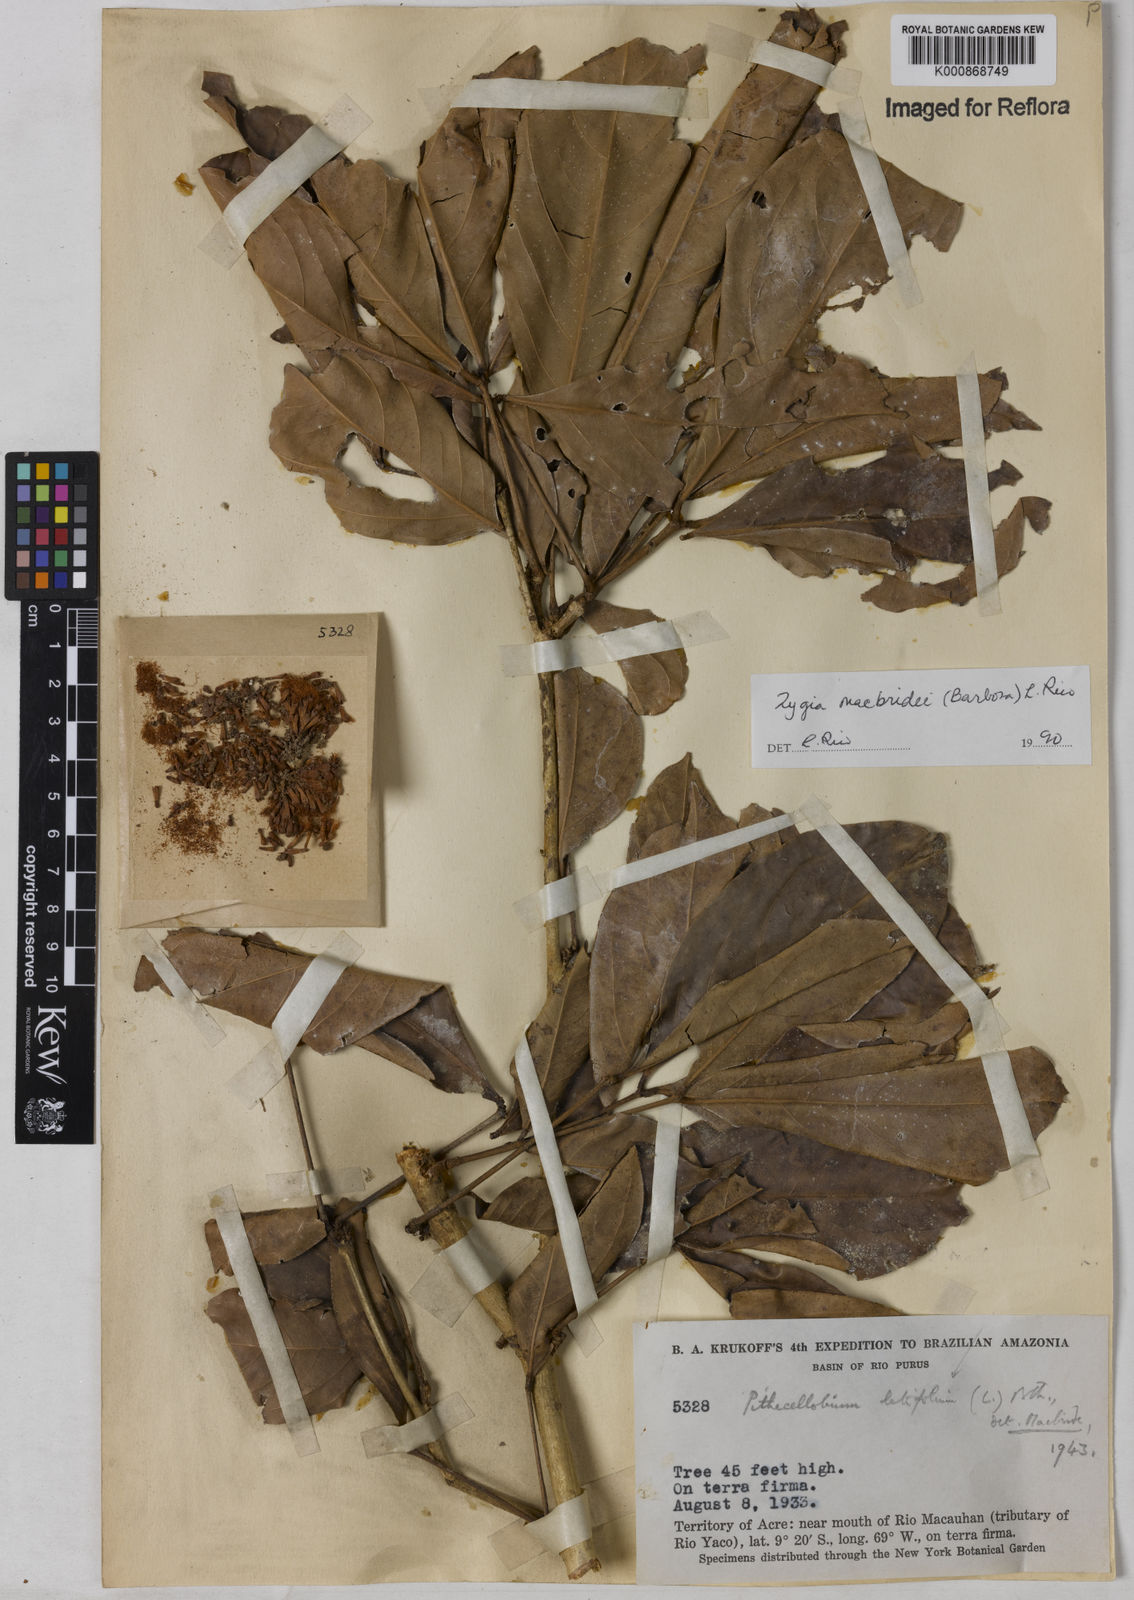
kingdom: Plantae
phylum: Tracheophyta
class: Magnoliopsida
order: Fabales
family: Fabaceae
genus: Zygia
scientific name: Zygia macbridei
